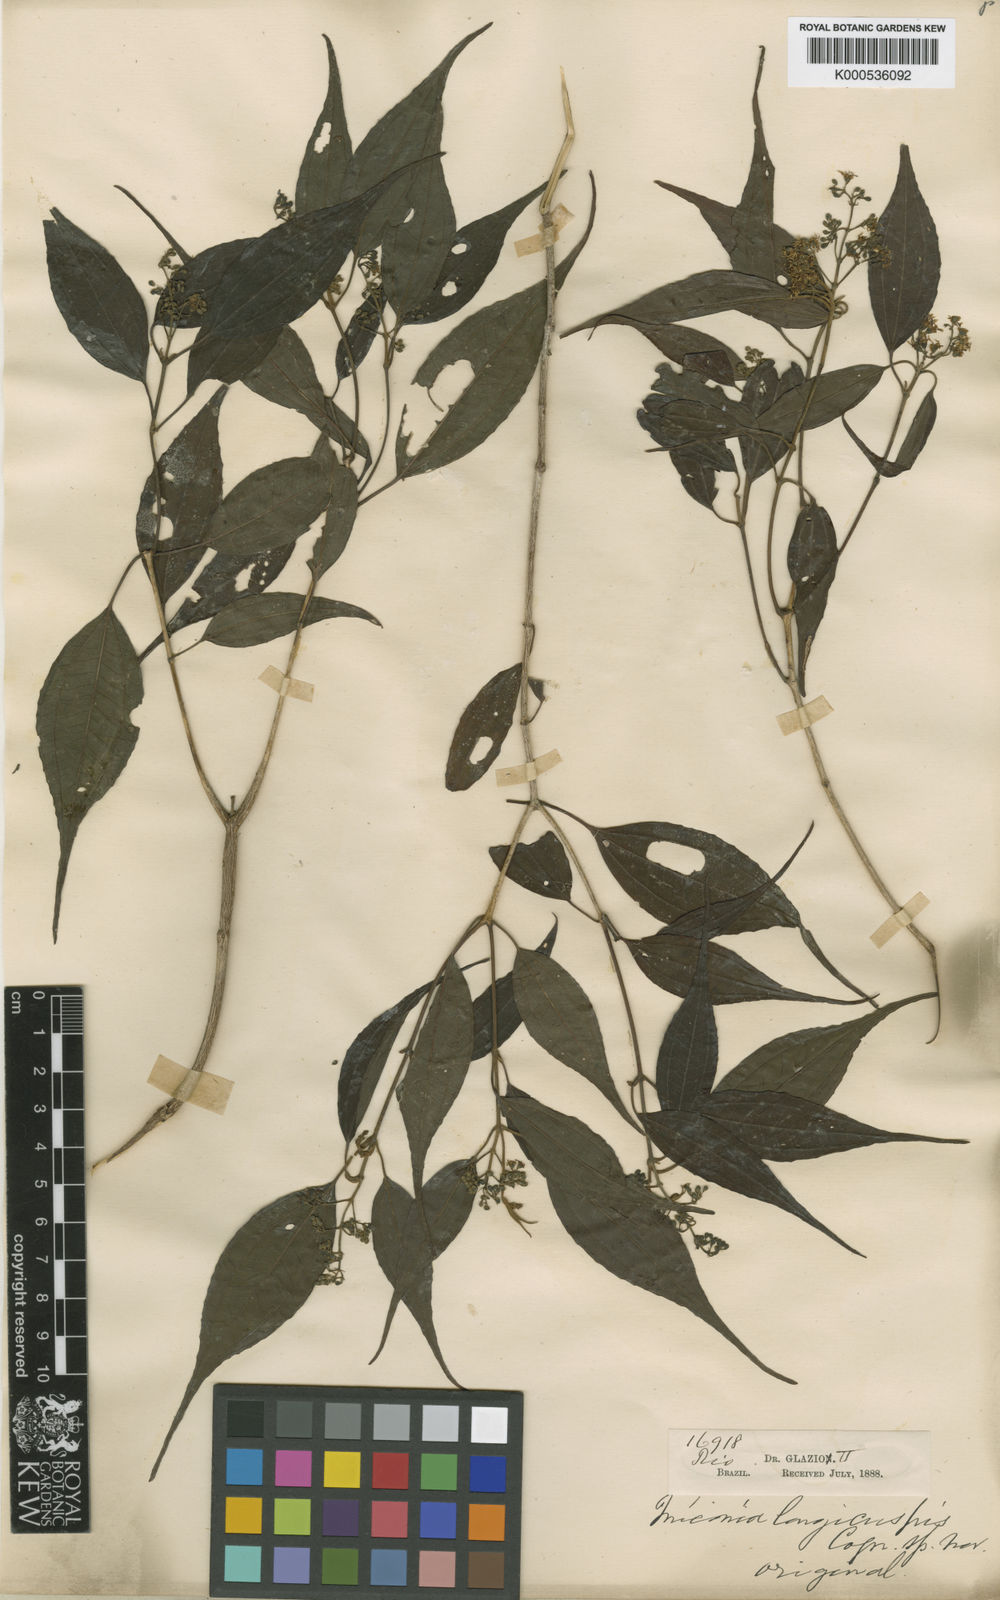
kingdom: Plantae
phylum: Tracheophyta
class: Magnoliopsida
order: Myrtales
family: Melastomataceae
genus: Miconia
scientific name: Miconia longicuspis
